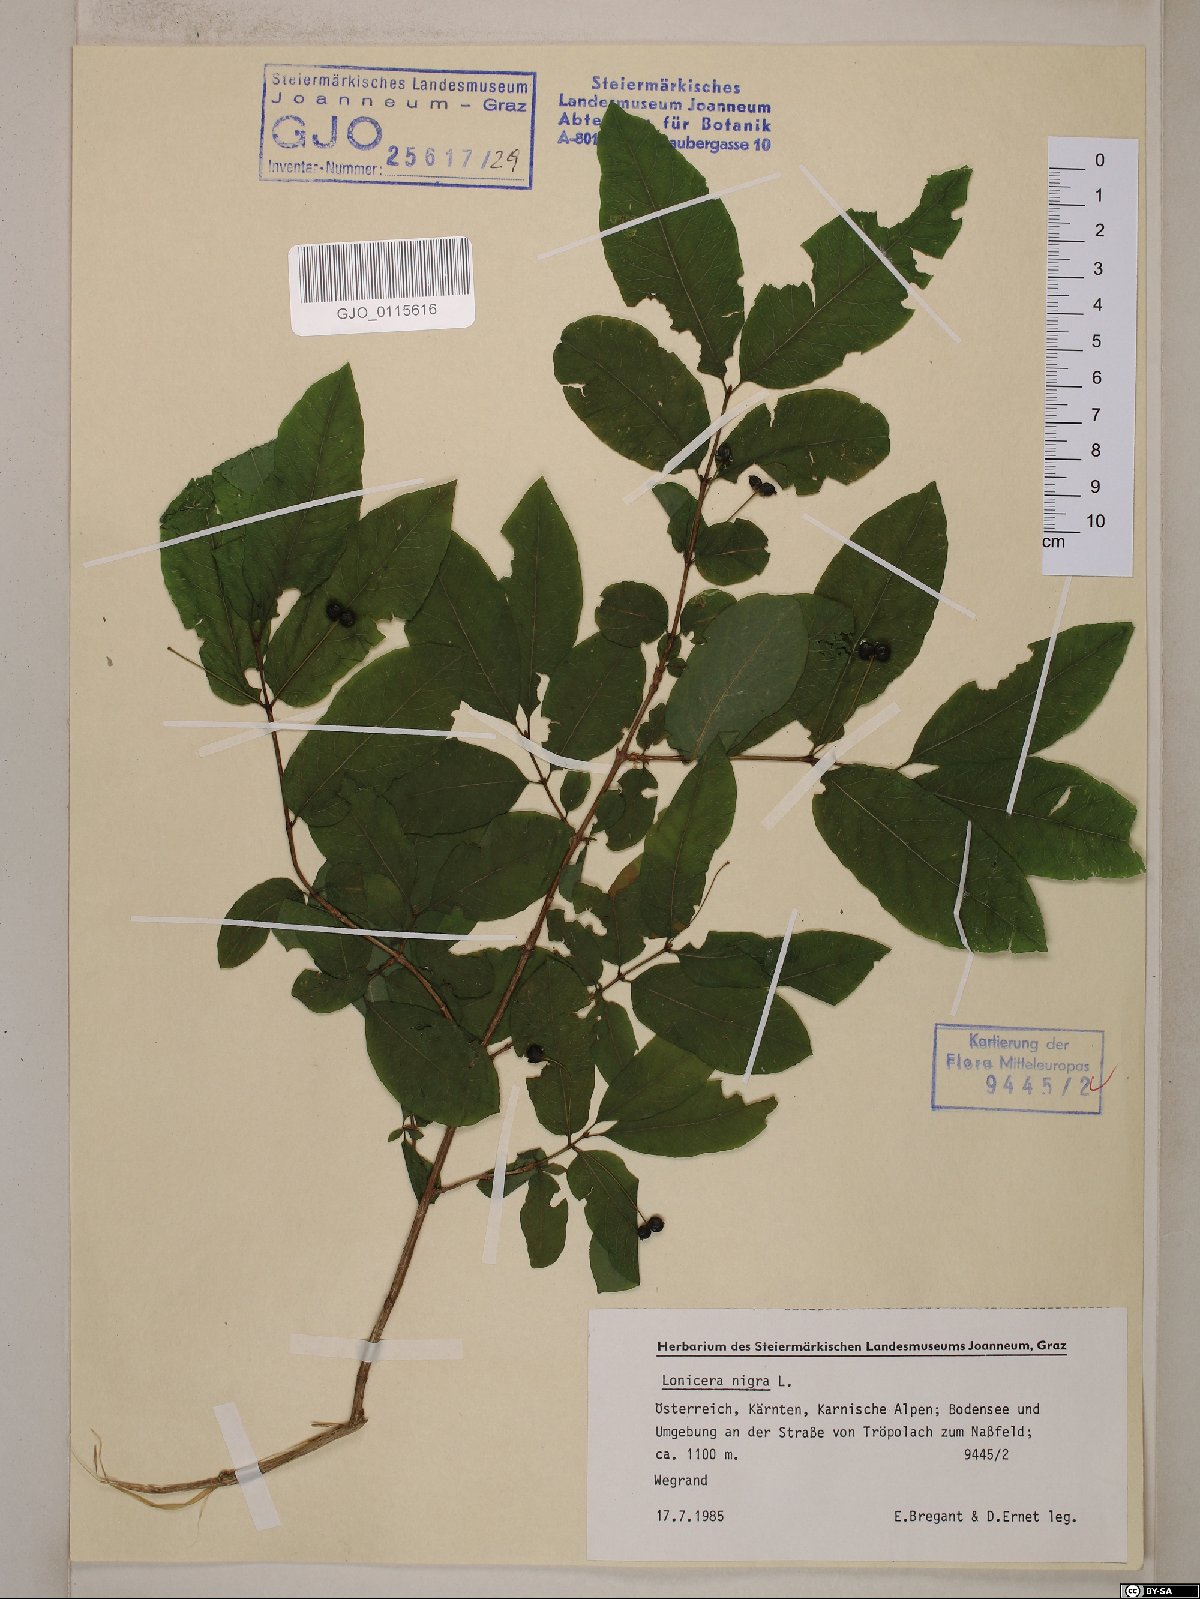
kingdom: Plantae
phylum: Tracheophyta
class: Magnoliopsida
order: Dipsacales
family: Caprifoliaceae
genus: Lonicera
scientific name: Lonicera nigra
